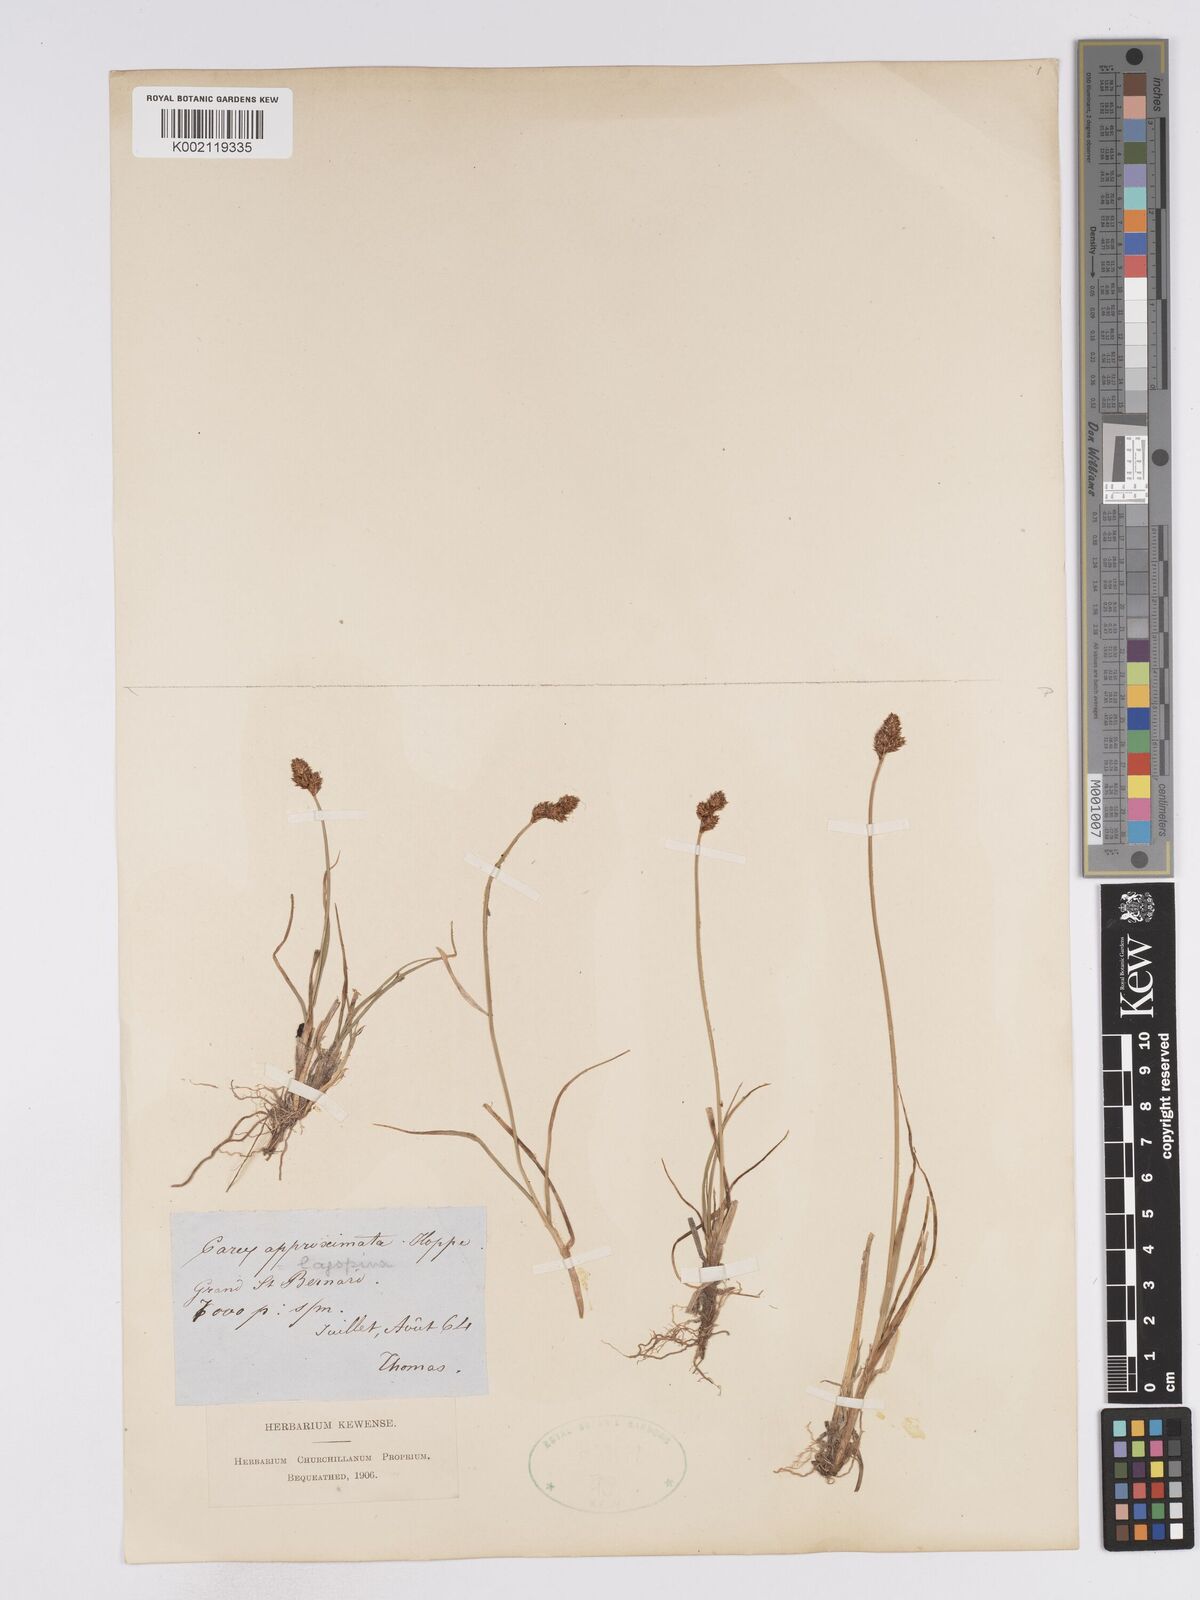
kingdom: Plantae
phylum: Tracheophyta
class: Liliopsida
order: Poales
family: Cyperaceae
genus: Carex
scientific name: Carex lachenalii
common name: Hare's-foot sedge
